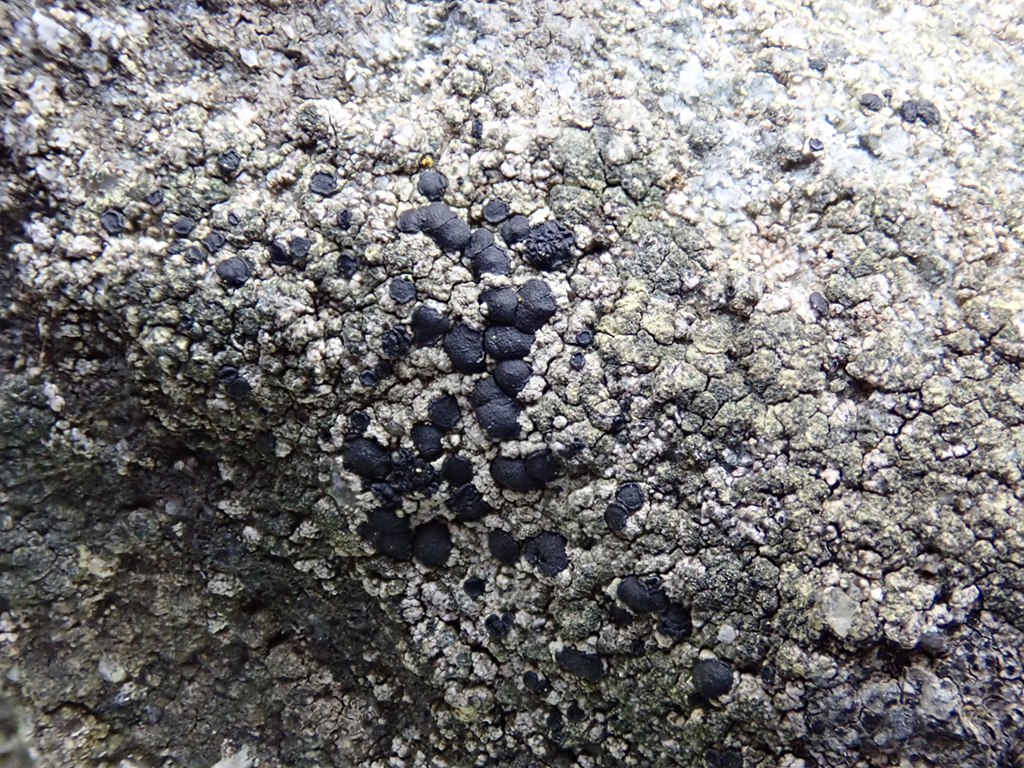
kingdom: Fungi
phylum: Ascomycota
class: Lecanoromycetes
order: Lecanorales
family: Lecanoraceae
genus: Lecidella
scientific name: Lecidella scabra
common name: skurvet skivelav
